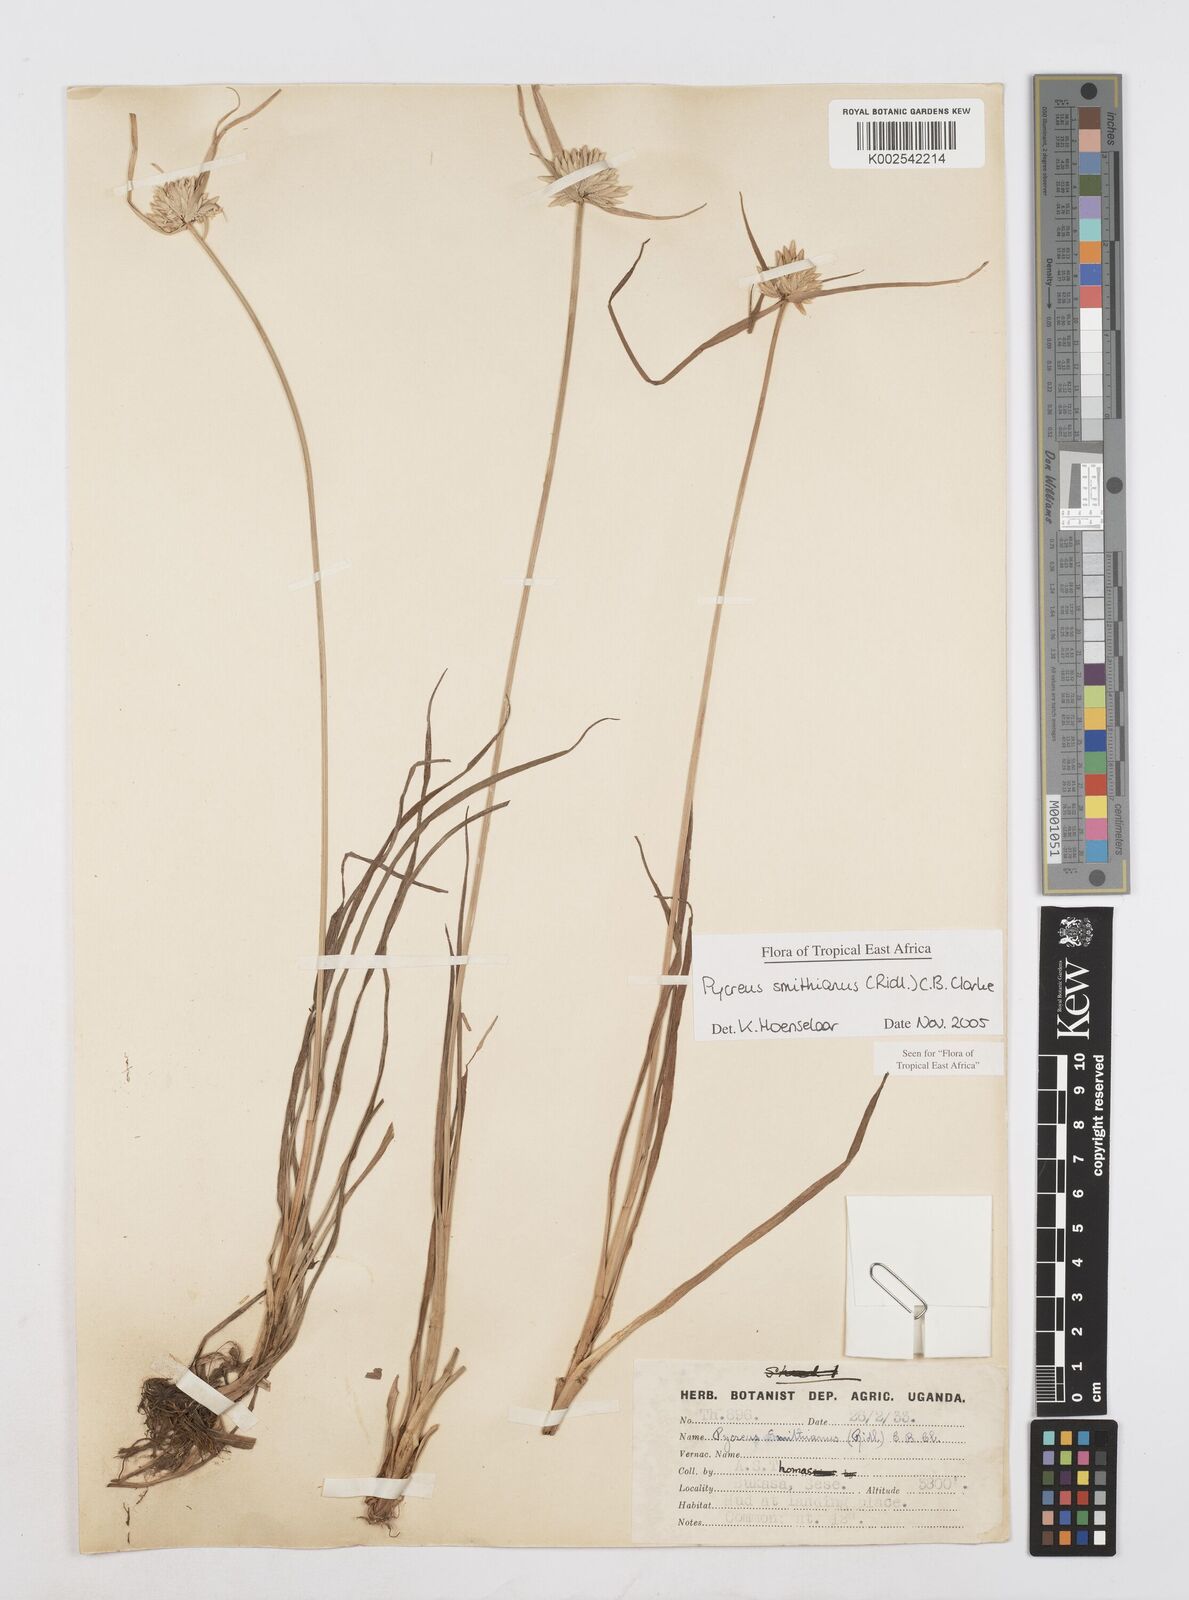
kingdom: Plantae
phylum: Tracheophyta
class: Liliopsida
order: Poales
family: Cyperaceae
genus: Cyperus
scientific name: Cyperus smithianus
